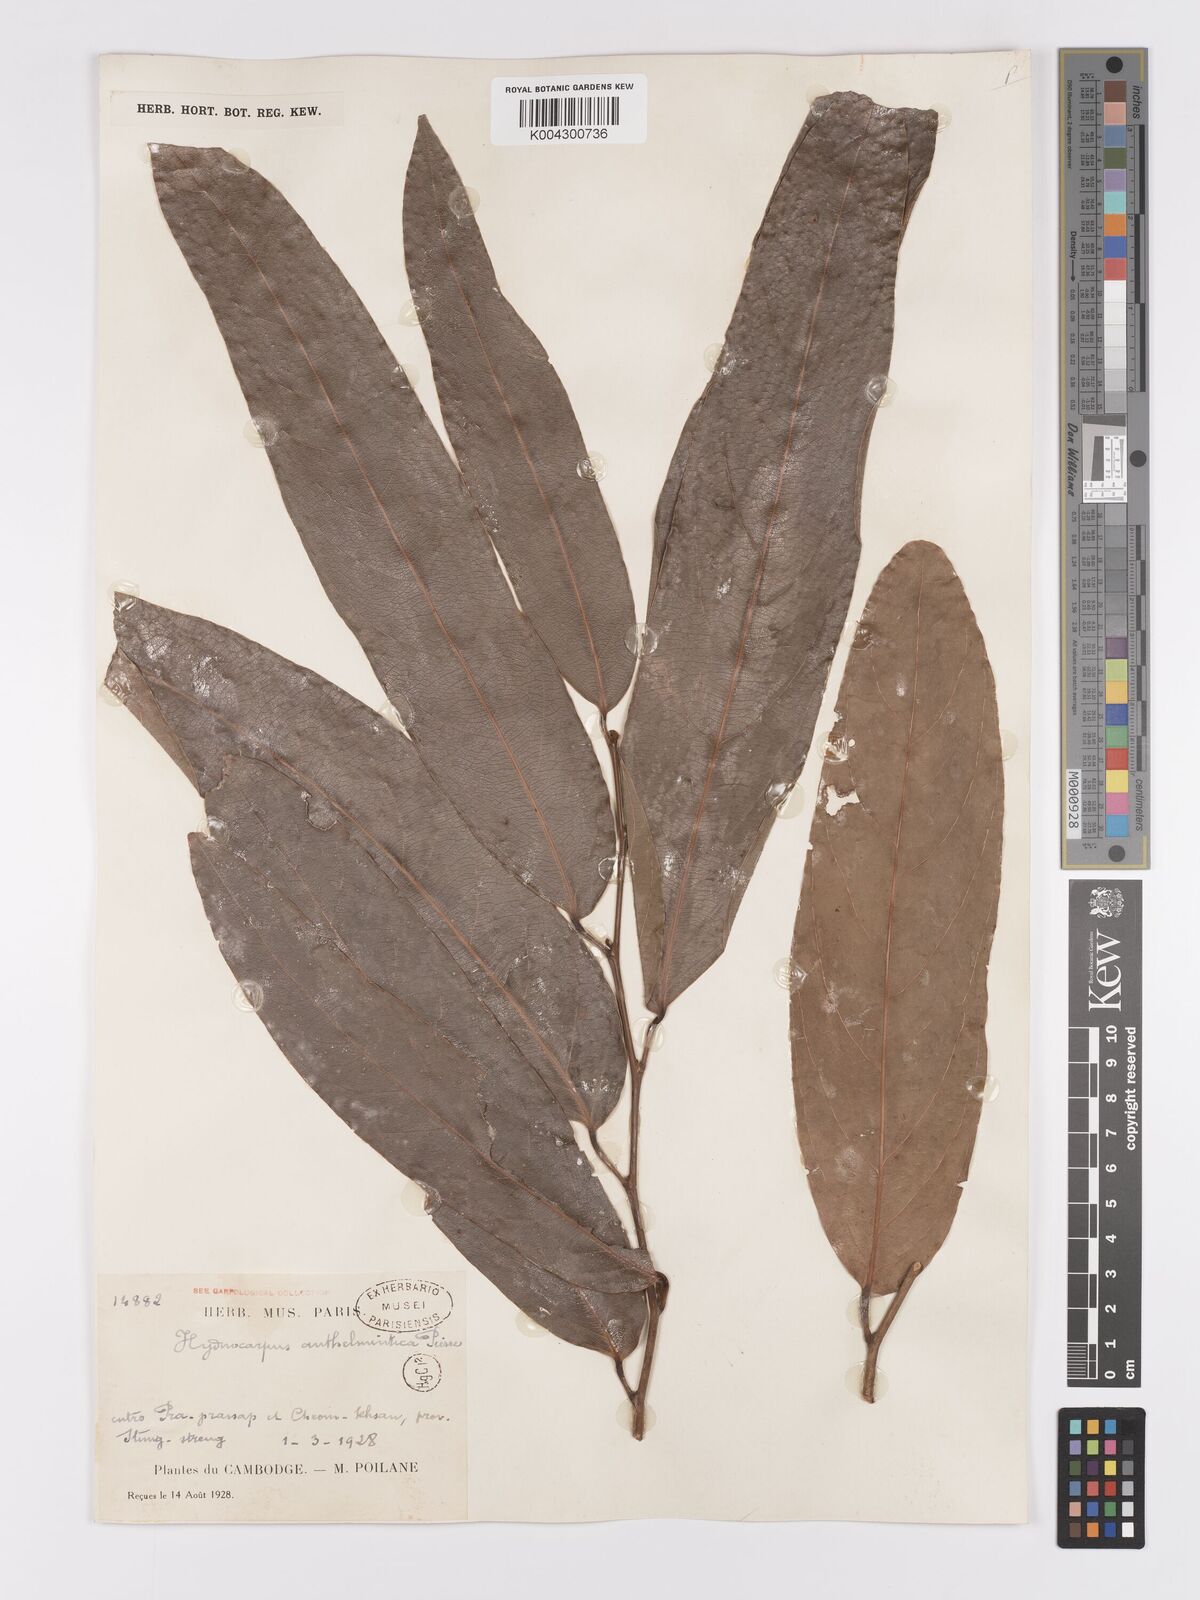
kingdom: Plantae
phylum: Tracheophyta
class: Magnoliopsida
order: Malpighiales
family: Achariaceae
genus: Hydnocarpus
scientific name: Hydnocarpus
